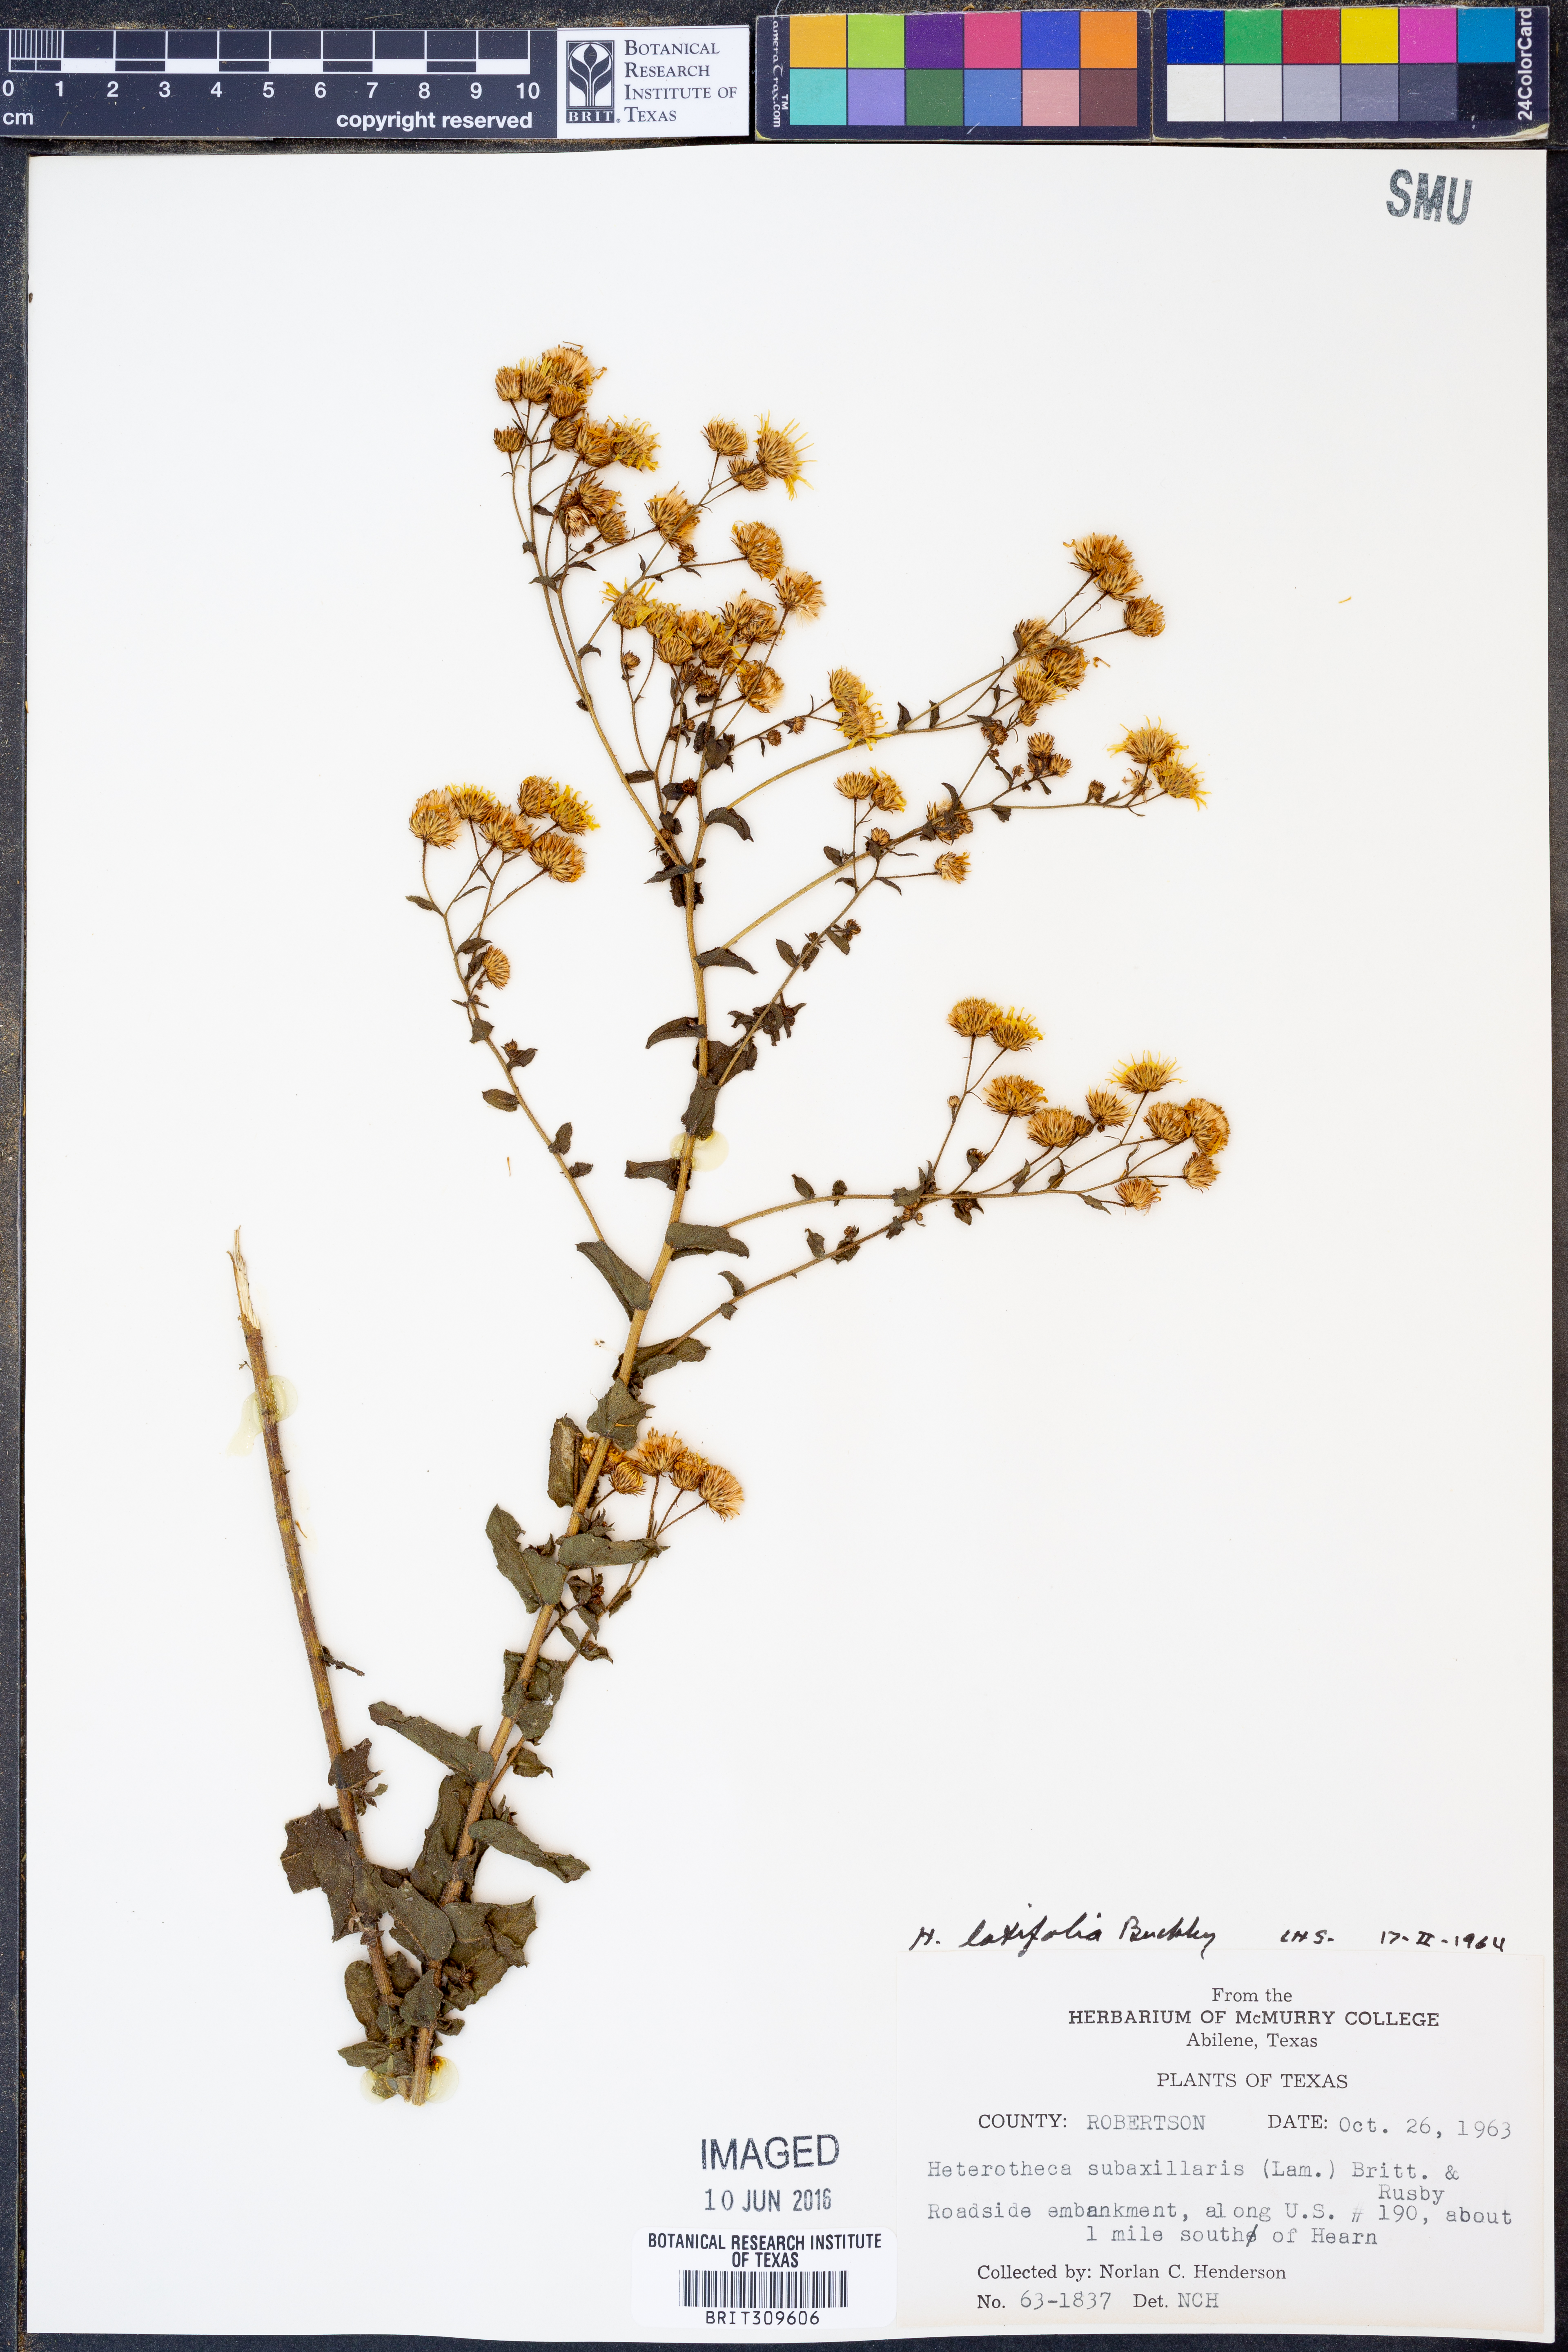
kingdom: Plantae
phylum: Tracheophyta
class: Magnoliopsida
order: Asterales
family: Asteraceae
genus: Heterotheca
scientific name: Heterotheca subaxillaris
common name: Camphorweed
